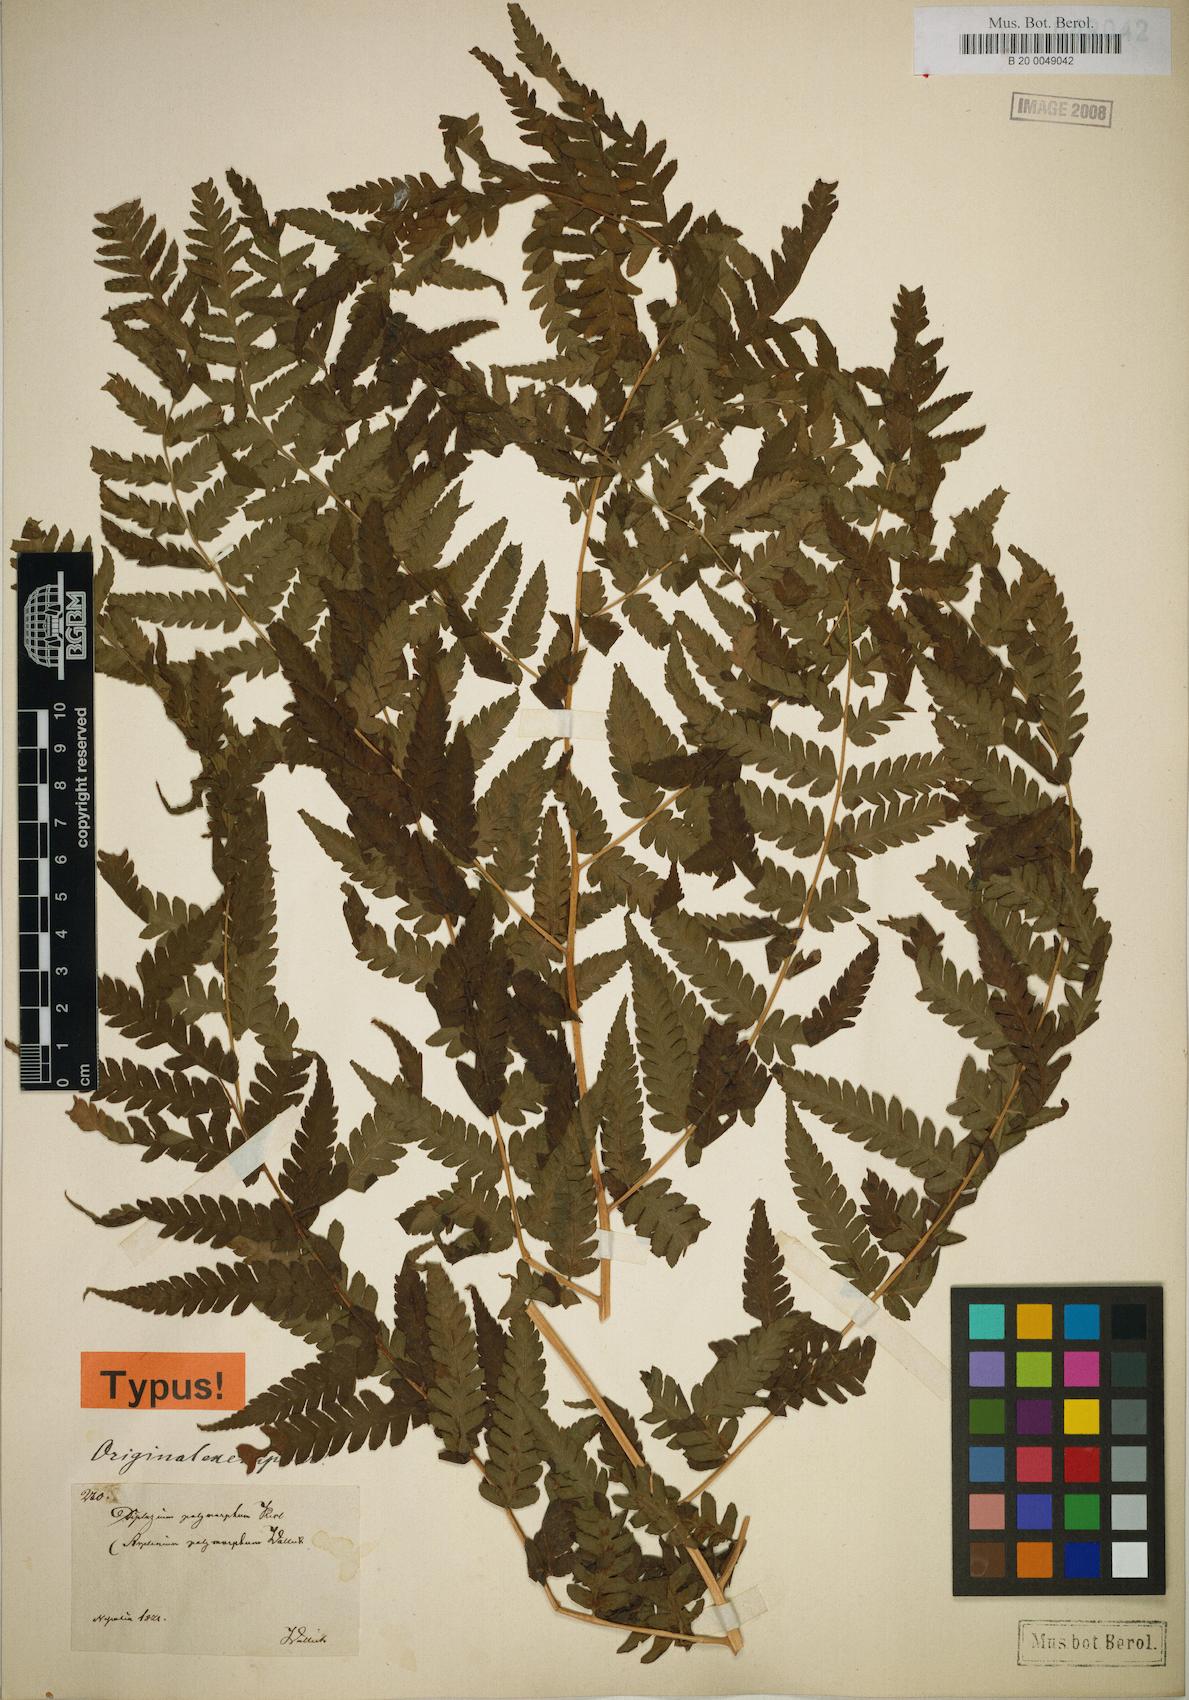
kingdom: Plantae
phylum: Tracheophyta
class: Polypodiopsida
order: Polypodiales
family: Athyriaceae
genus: Diplazium
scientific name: Diplazium maximum
